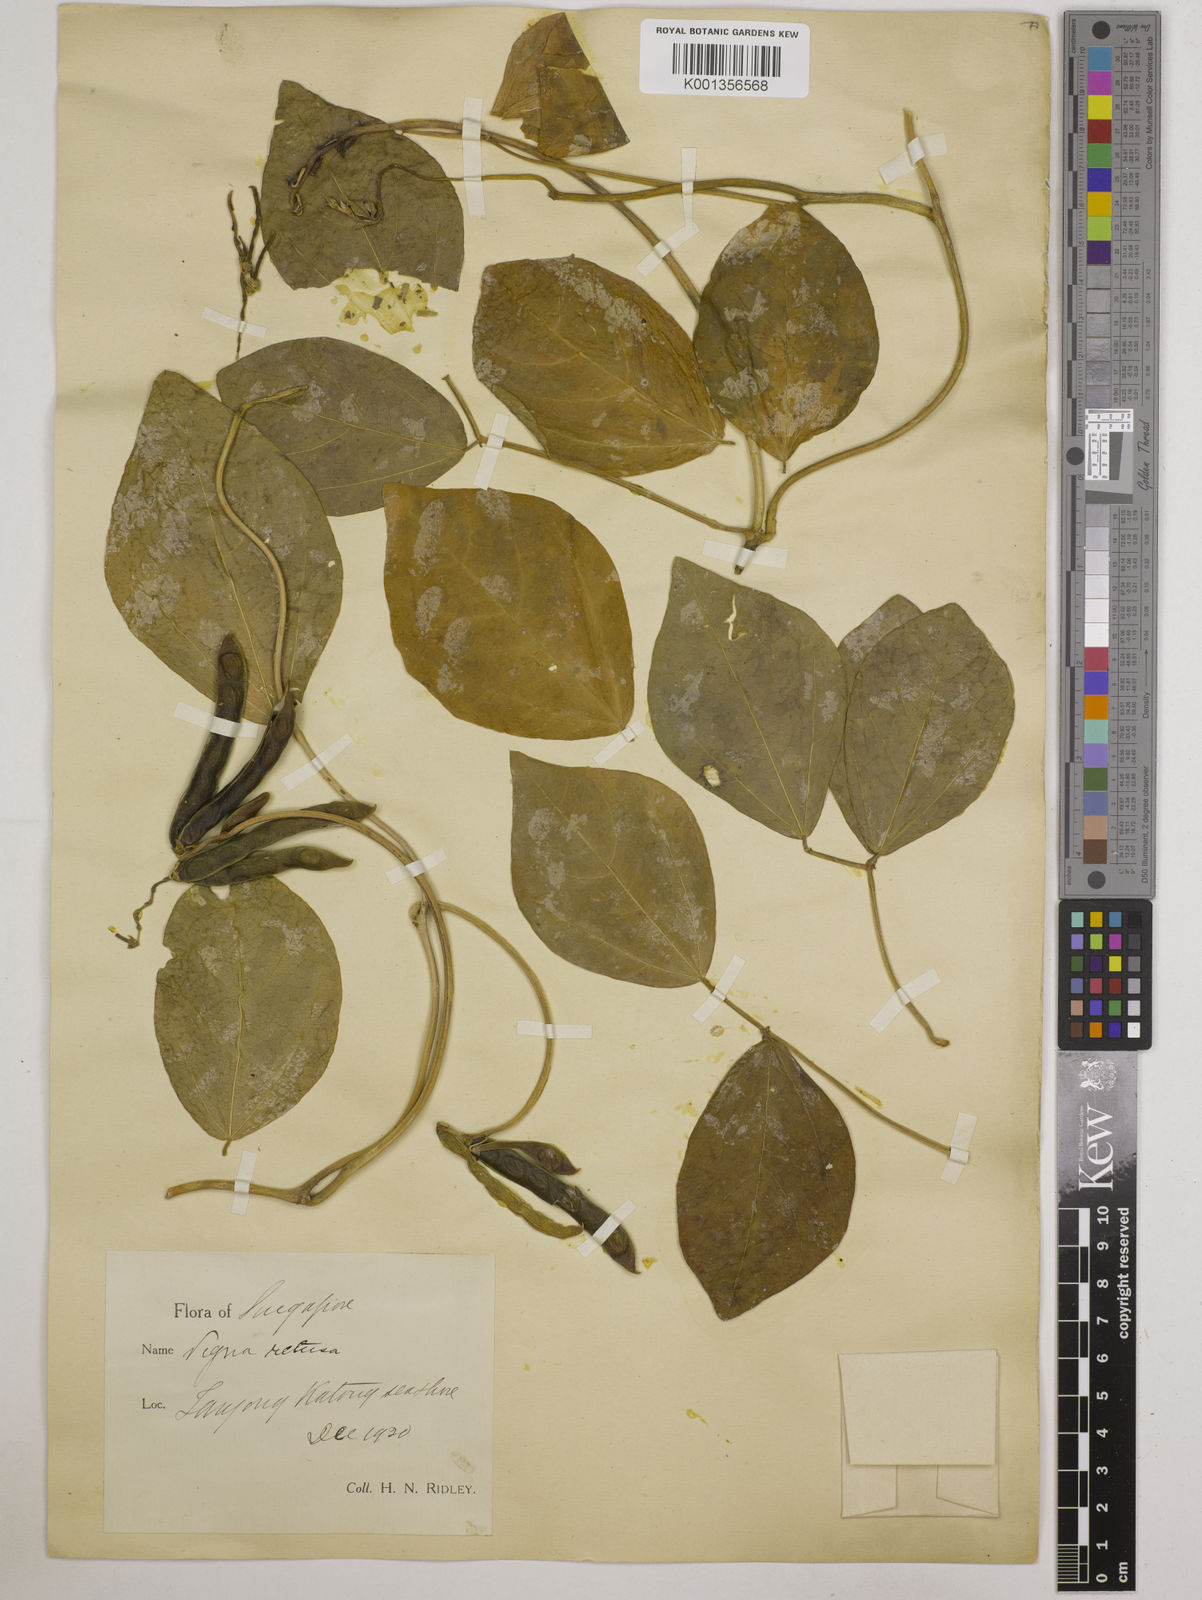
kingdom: Plantae
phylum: Tracheophyta
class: Magnoliopsida
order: Fabales
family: Fabaceae
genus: Vigna
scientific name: Vigna marina
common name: Dune-bean
